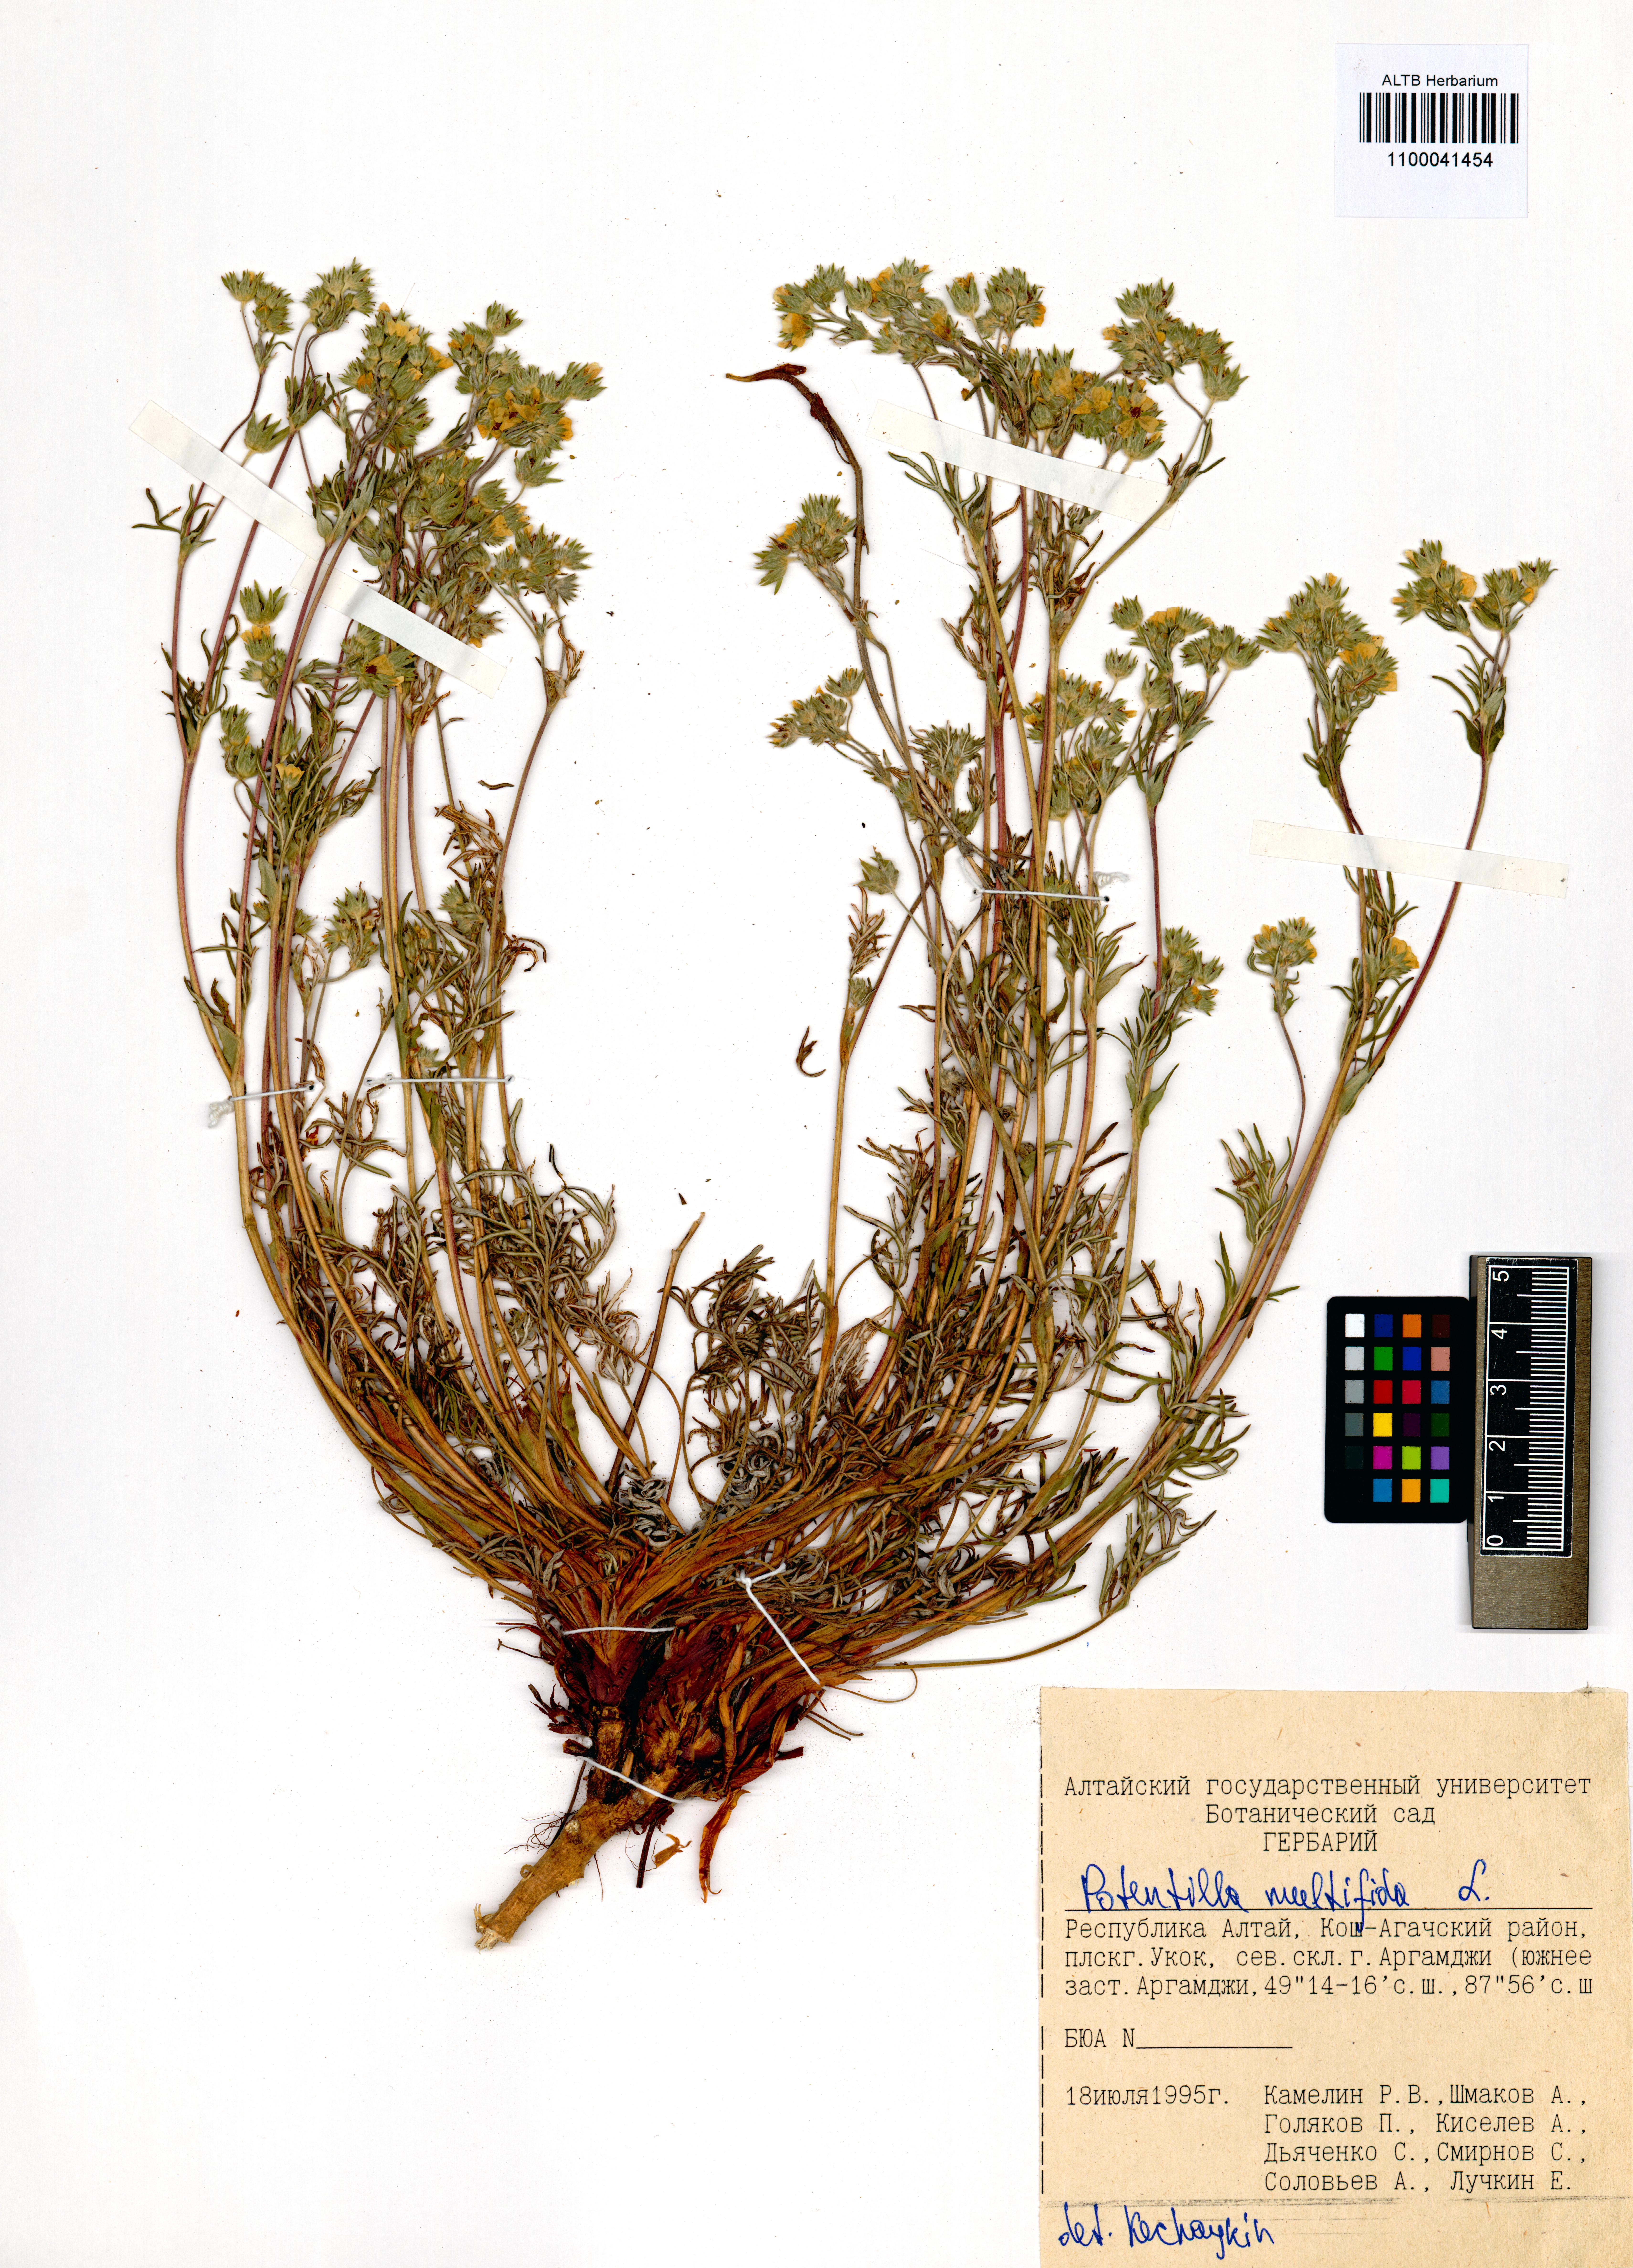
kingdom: Plantae
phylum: Tracheophyta
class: Magnoliopsida
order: Rosales
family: Rosaceae
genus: Potentilla
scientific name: Potentilla multifida
